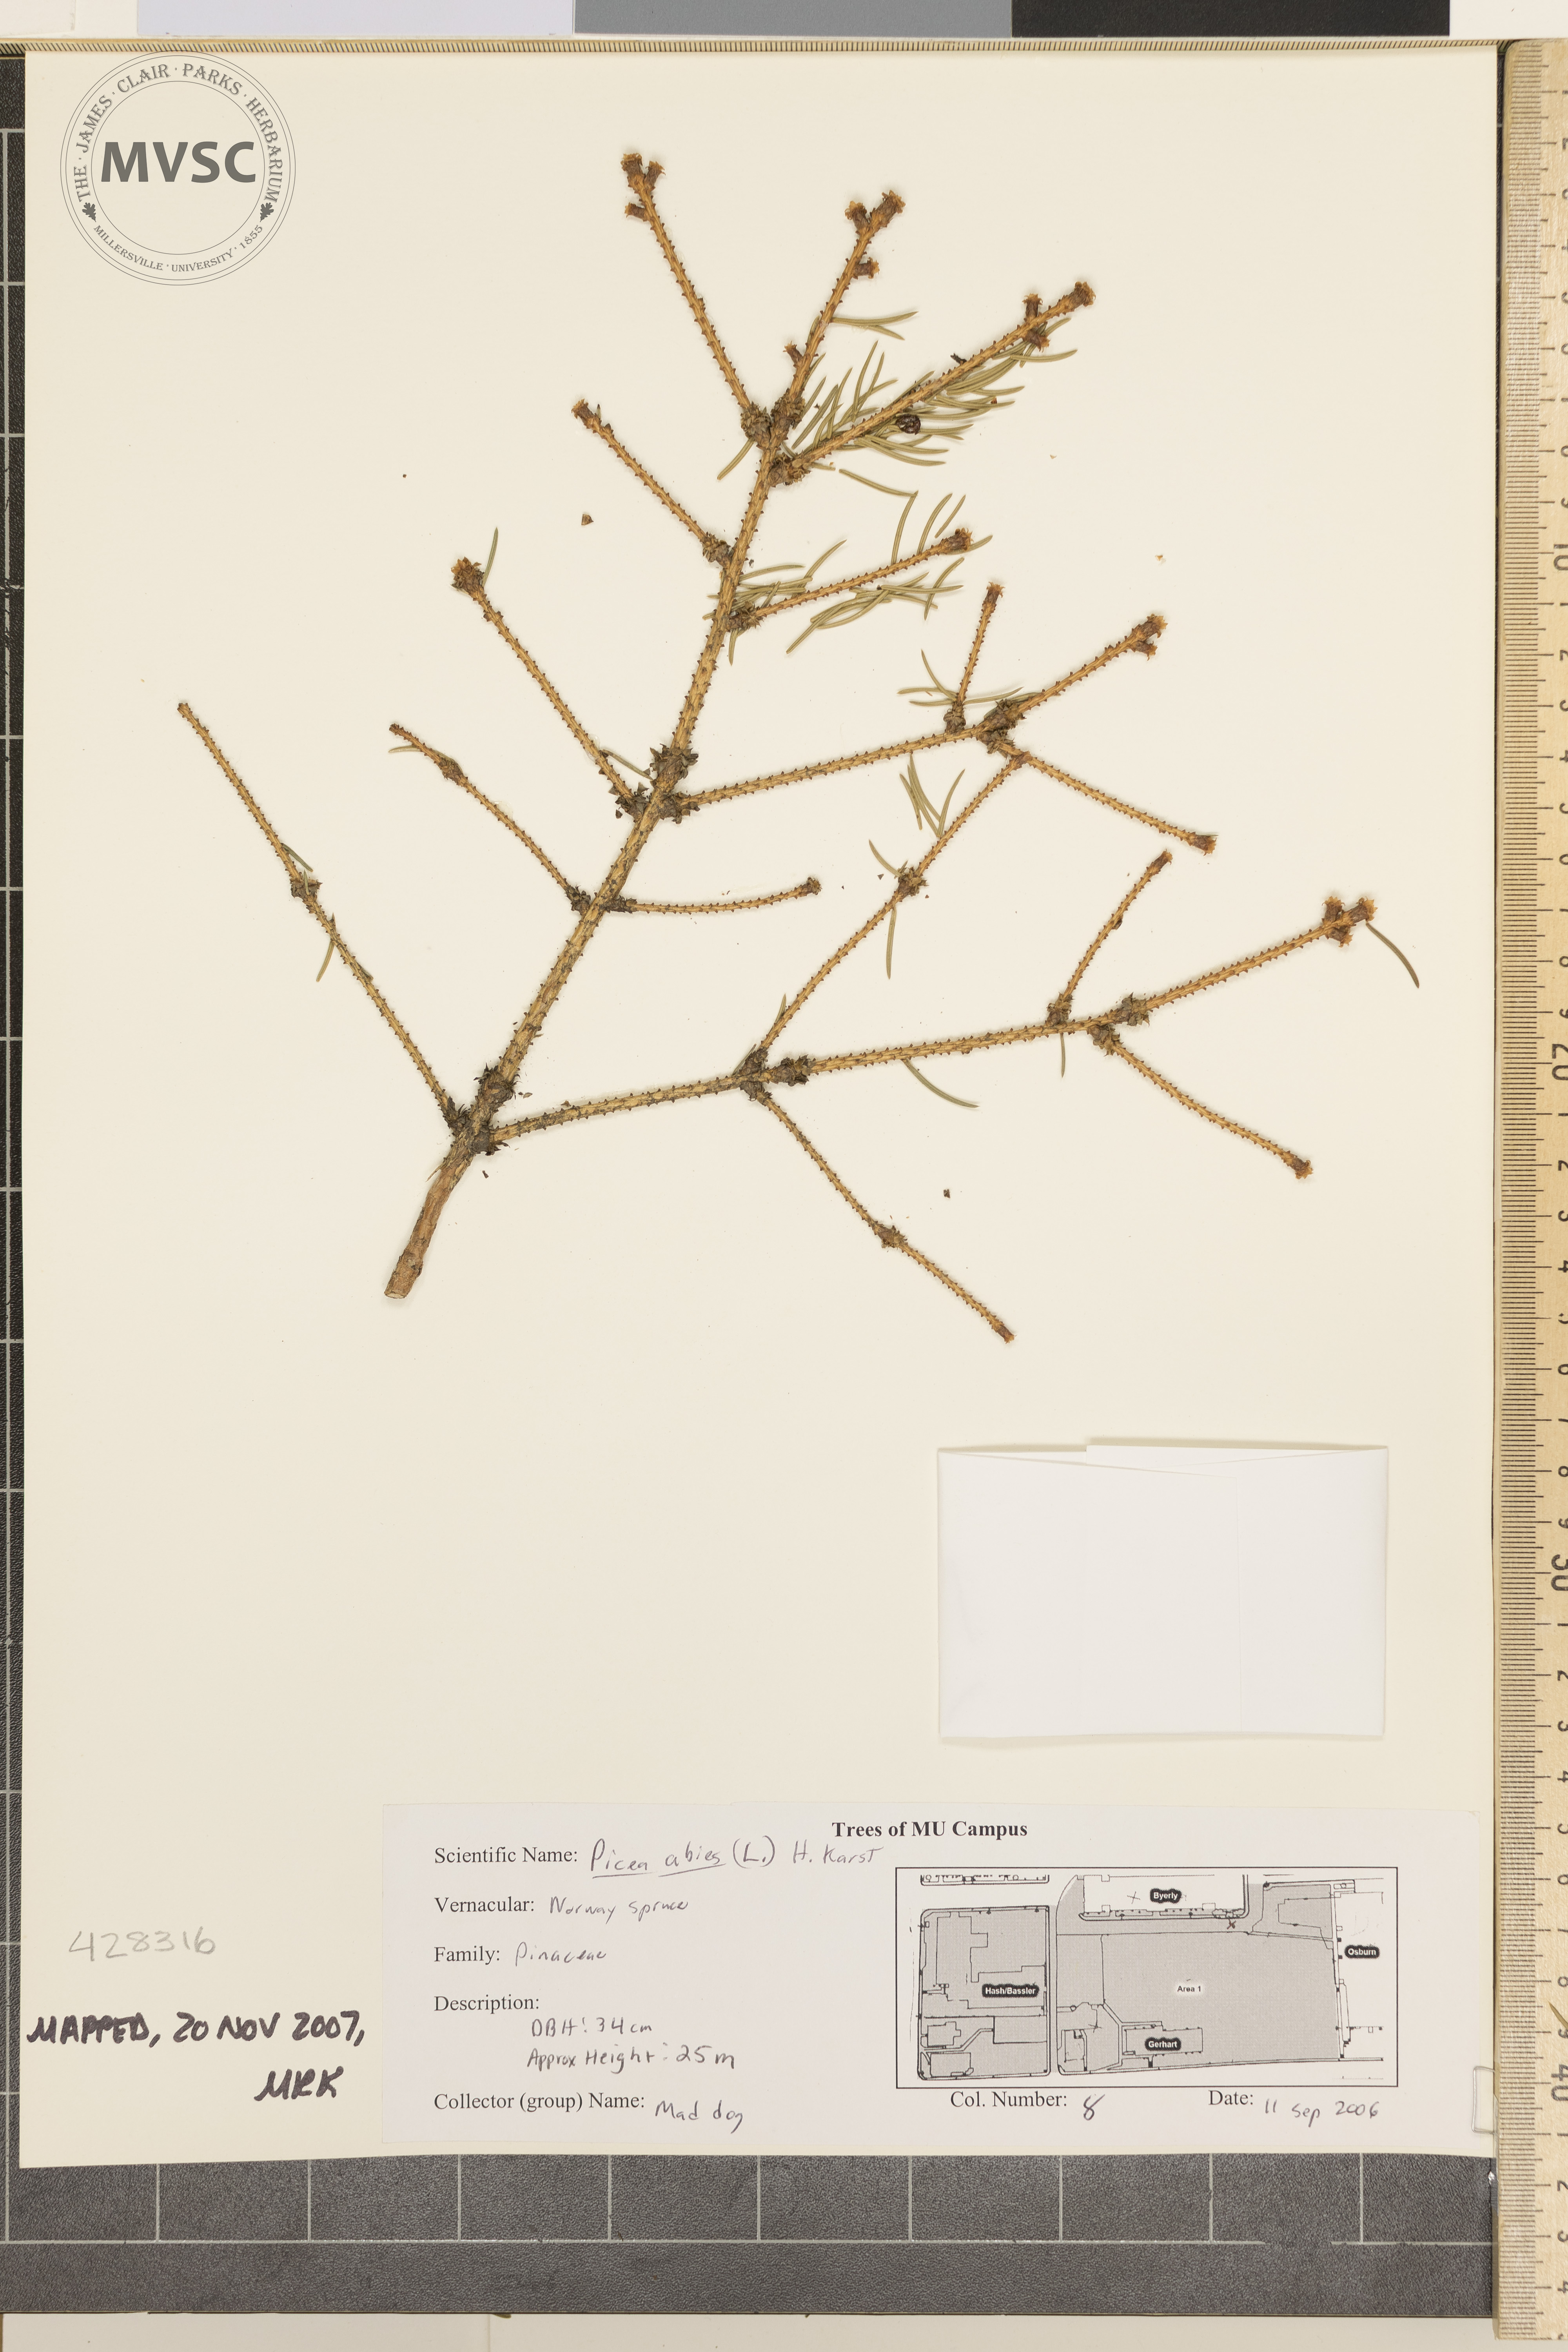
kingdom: Plantae
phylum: Tracheophyta
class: Pinopsida
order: Pinales
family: Pinaceae
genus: Picea
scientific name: Picea abies
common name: Norway Spruce
